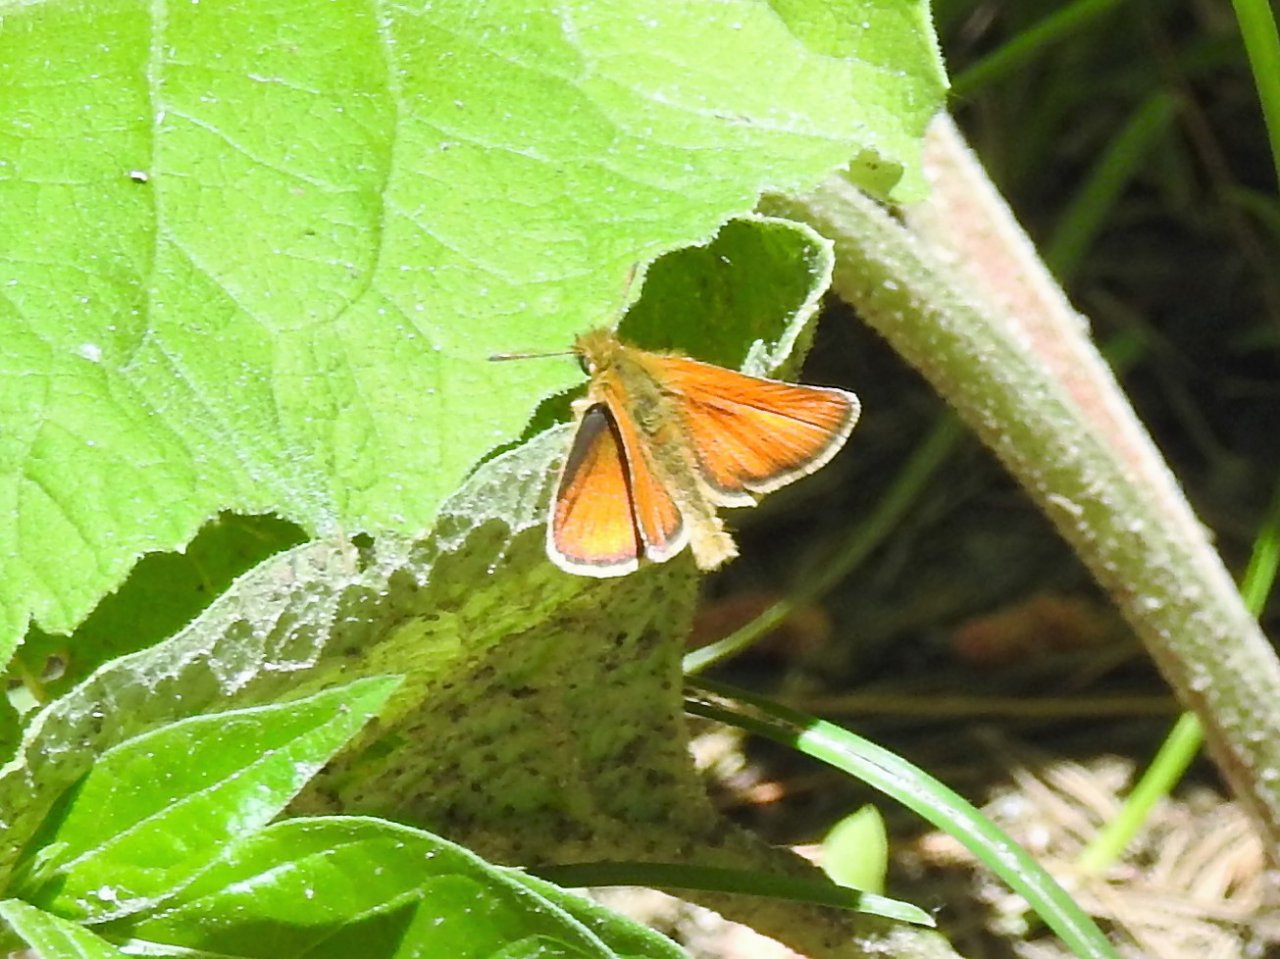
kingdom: Animalia
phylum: Arthropoda
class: Insecta
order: Lepidoptera
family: Hesperiidae
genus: Thymelicus
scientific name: Thymelicus lineola
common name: European Skipper
